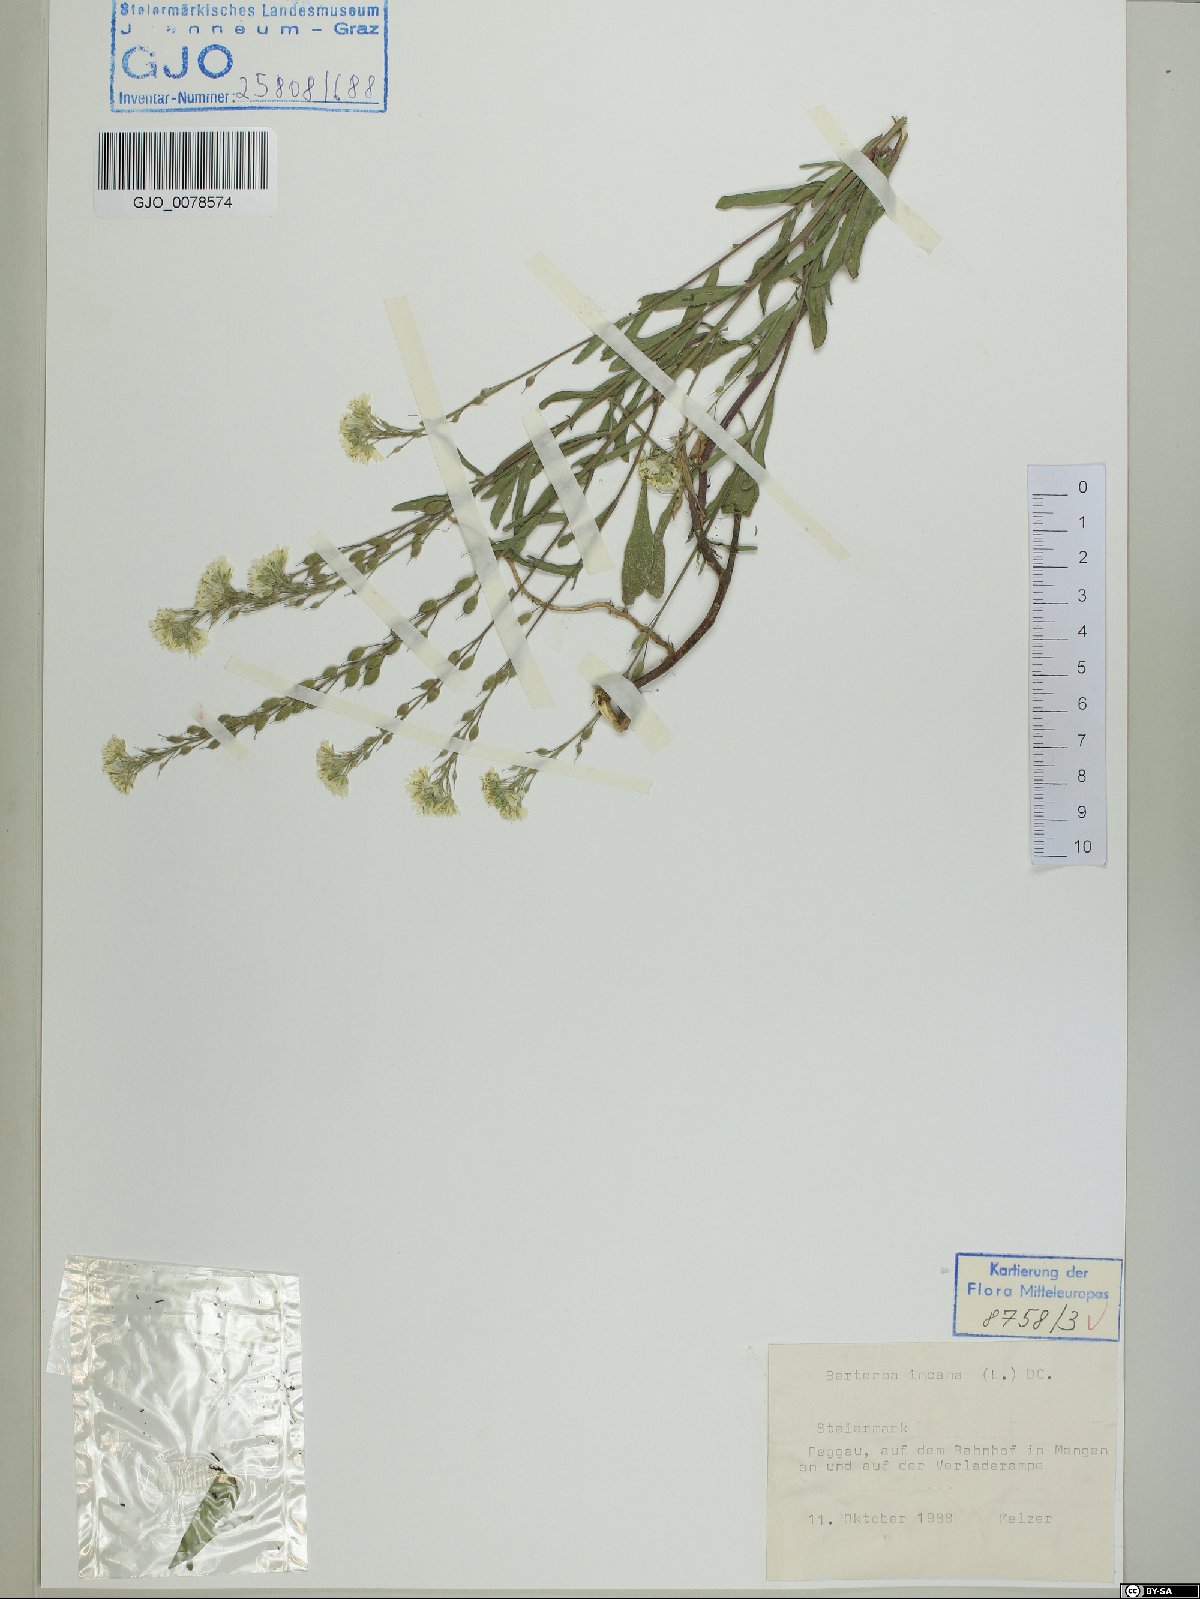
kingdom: Plantae
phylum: Tracheophyta
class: Magnoliopsida
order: Brassicales
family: Brassicaceae
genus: Berteroa
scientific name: Berteroa incana
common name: Hoary alison
